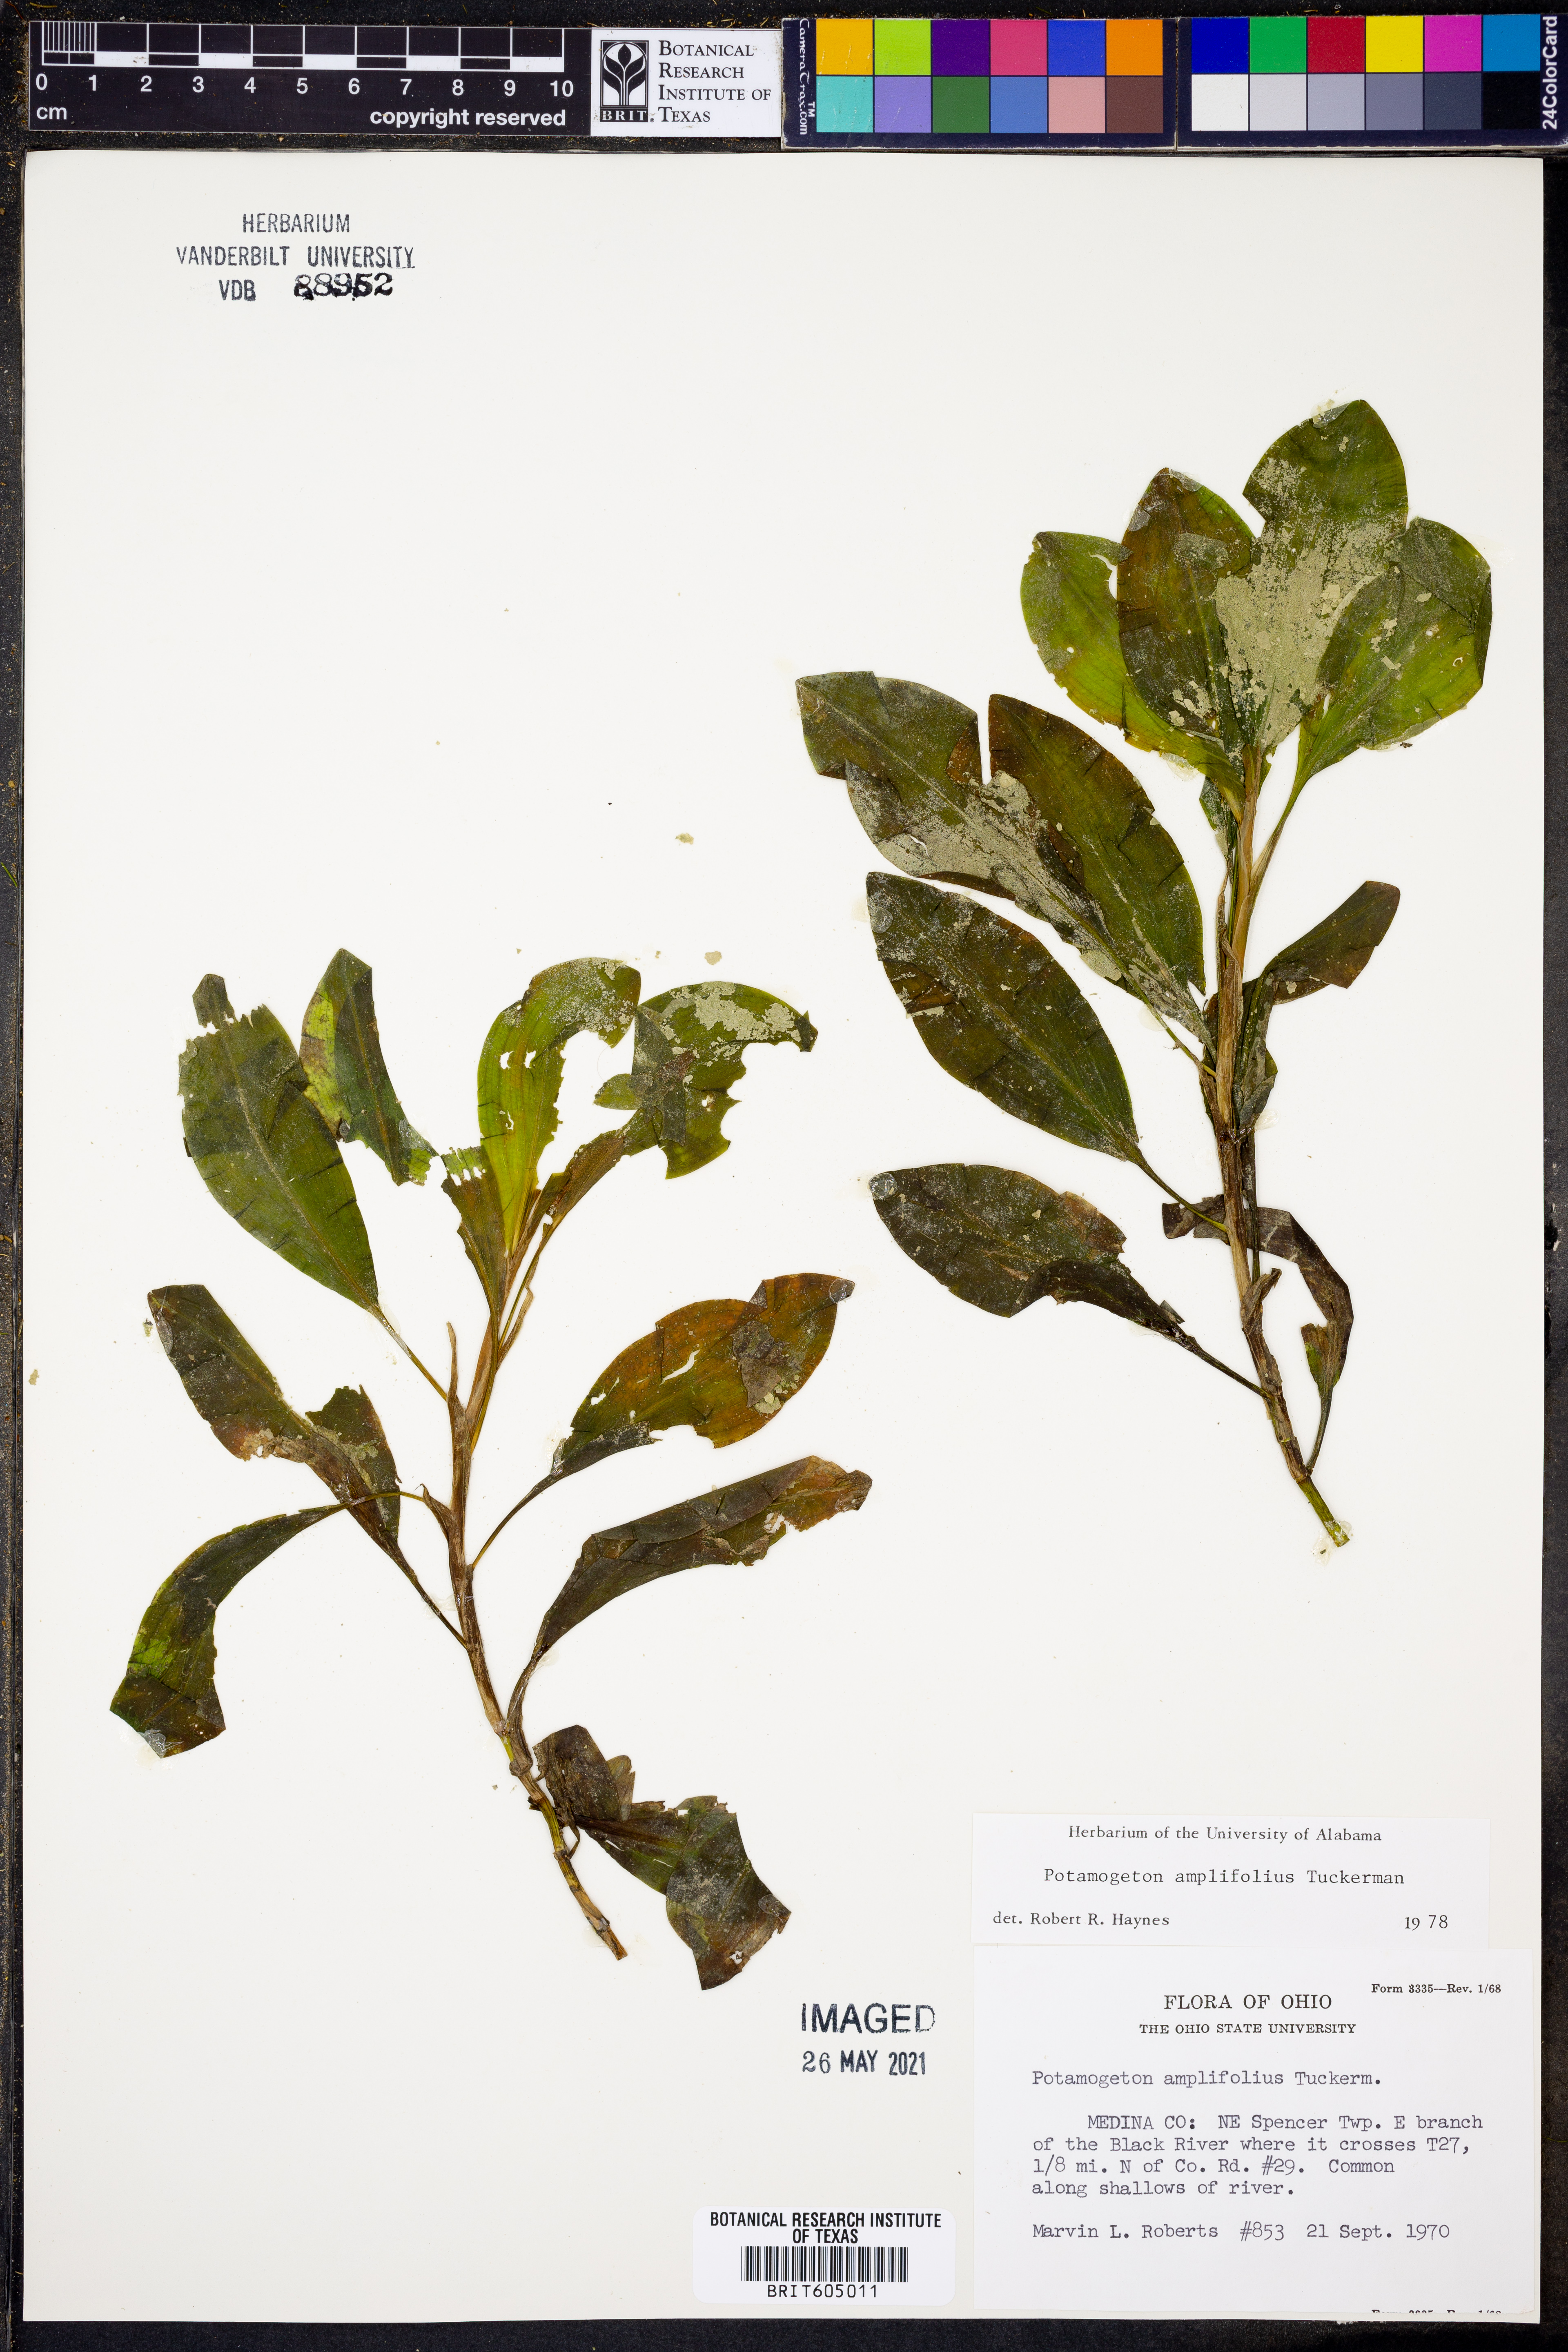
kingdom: Plantae
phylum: Tracheophyta
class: Liliopsida
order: Alismatales
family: Potamogetonaceae
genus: Potamogeton
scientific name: Potamogeton amplifolius
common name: Broad-leaved pondweed
